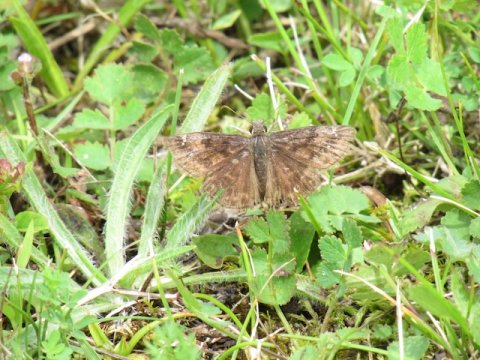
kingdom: Animalia
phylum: Arthropoda
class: Insecta
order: Lepidoptera
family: Hesperiidae
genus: Gesta
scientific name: Gesta
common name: Wild Indigo Duskywing
